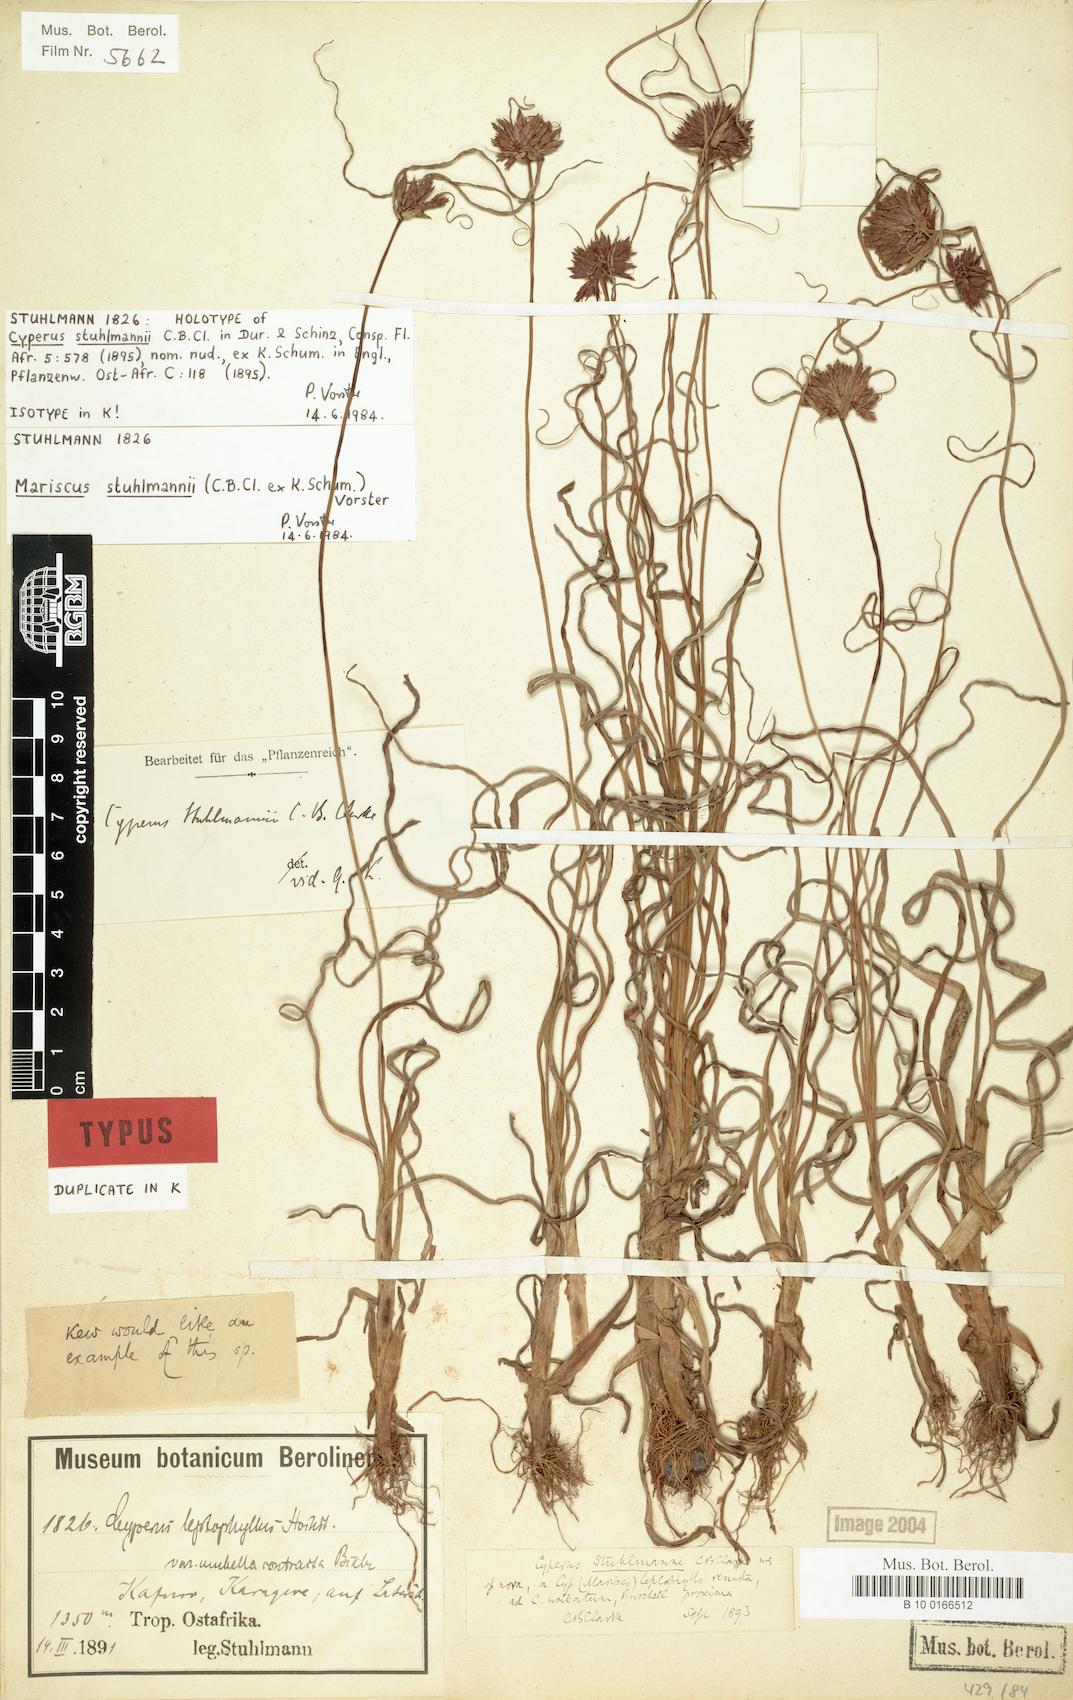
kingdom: Plantae
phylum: Tracheophyta
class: Liliopsida
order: Poales
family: Cyperaceae
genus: Cyperus
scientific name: Cyperus usitatus
